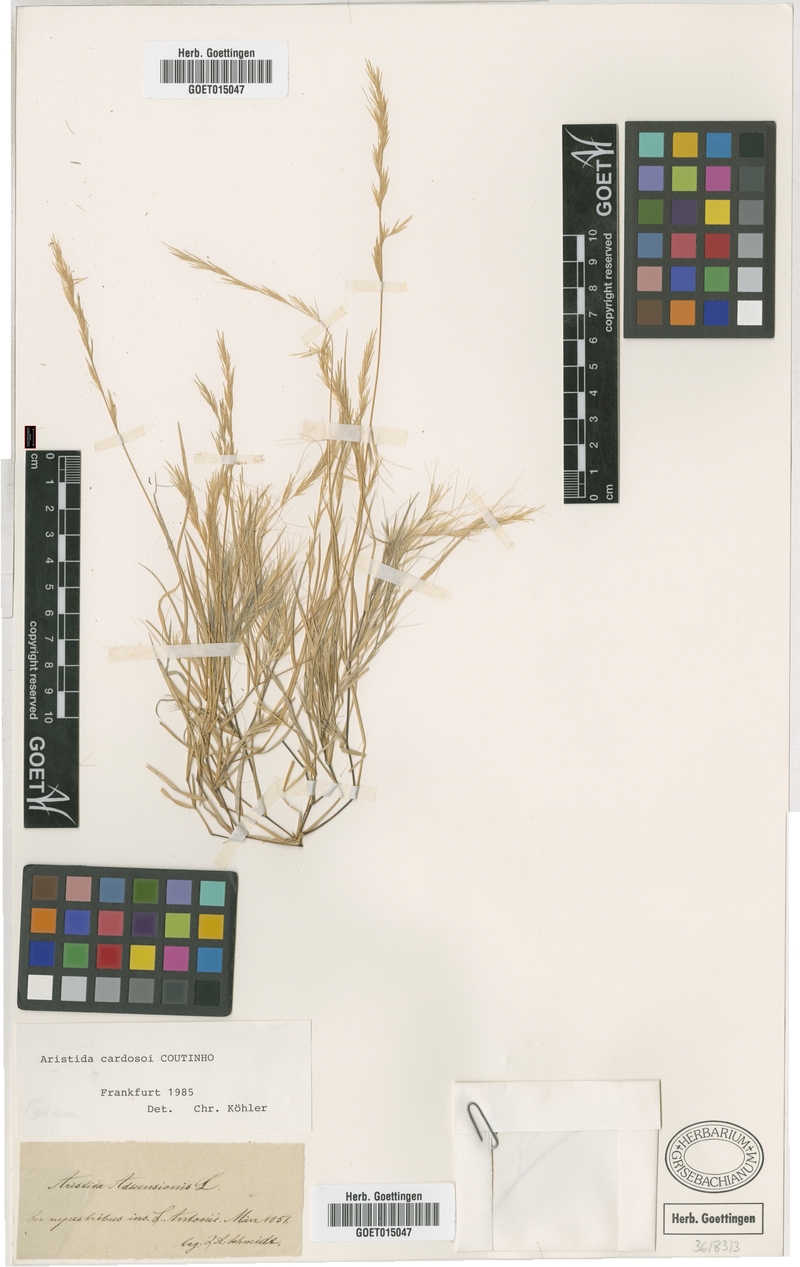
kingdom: Plantae
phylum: Tracheophyta
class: Liliopsida
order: Poales
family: Poaceae
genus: Aristida
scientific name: Aristida adscensionis
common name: Sixweeks threeawn
